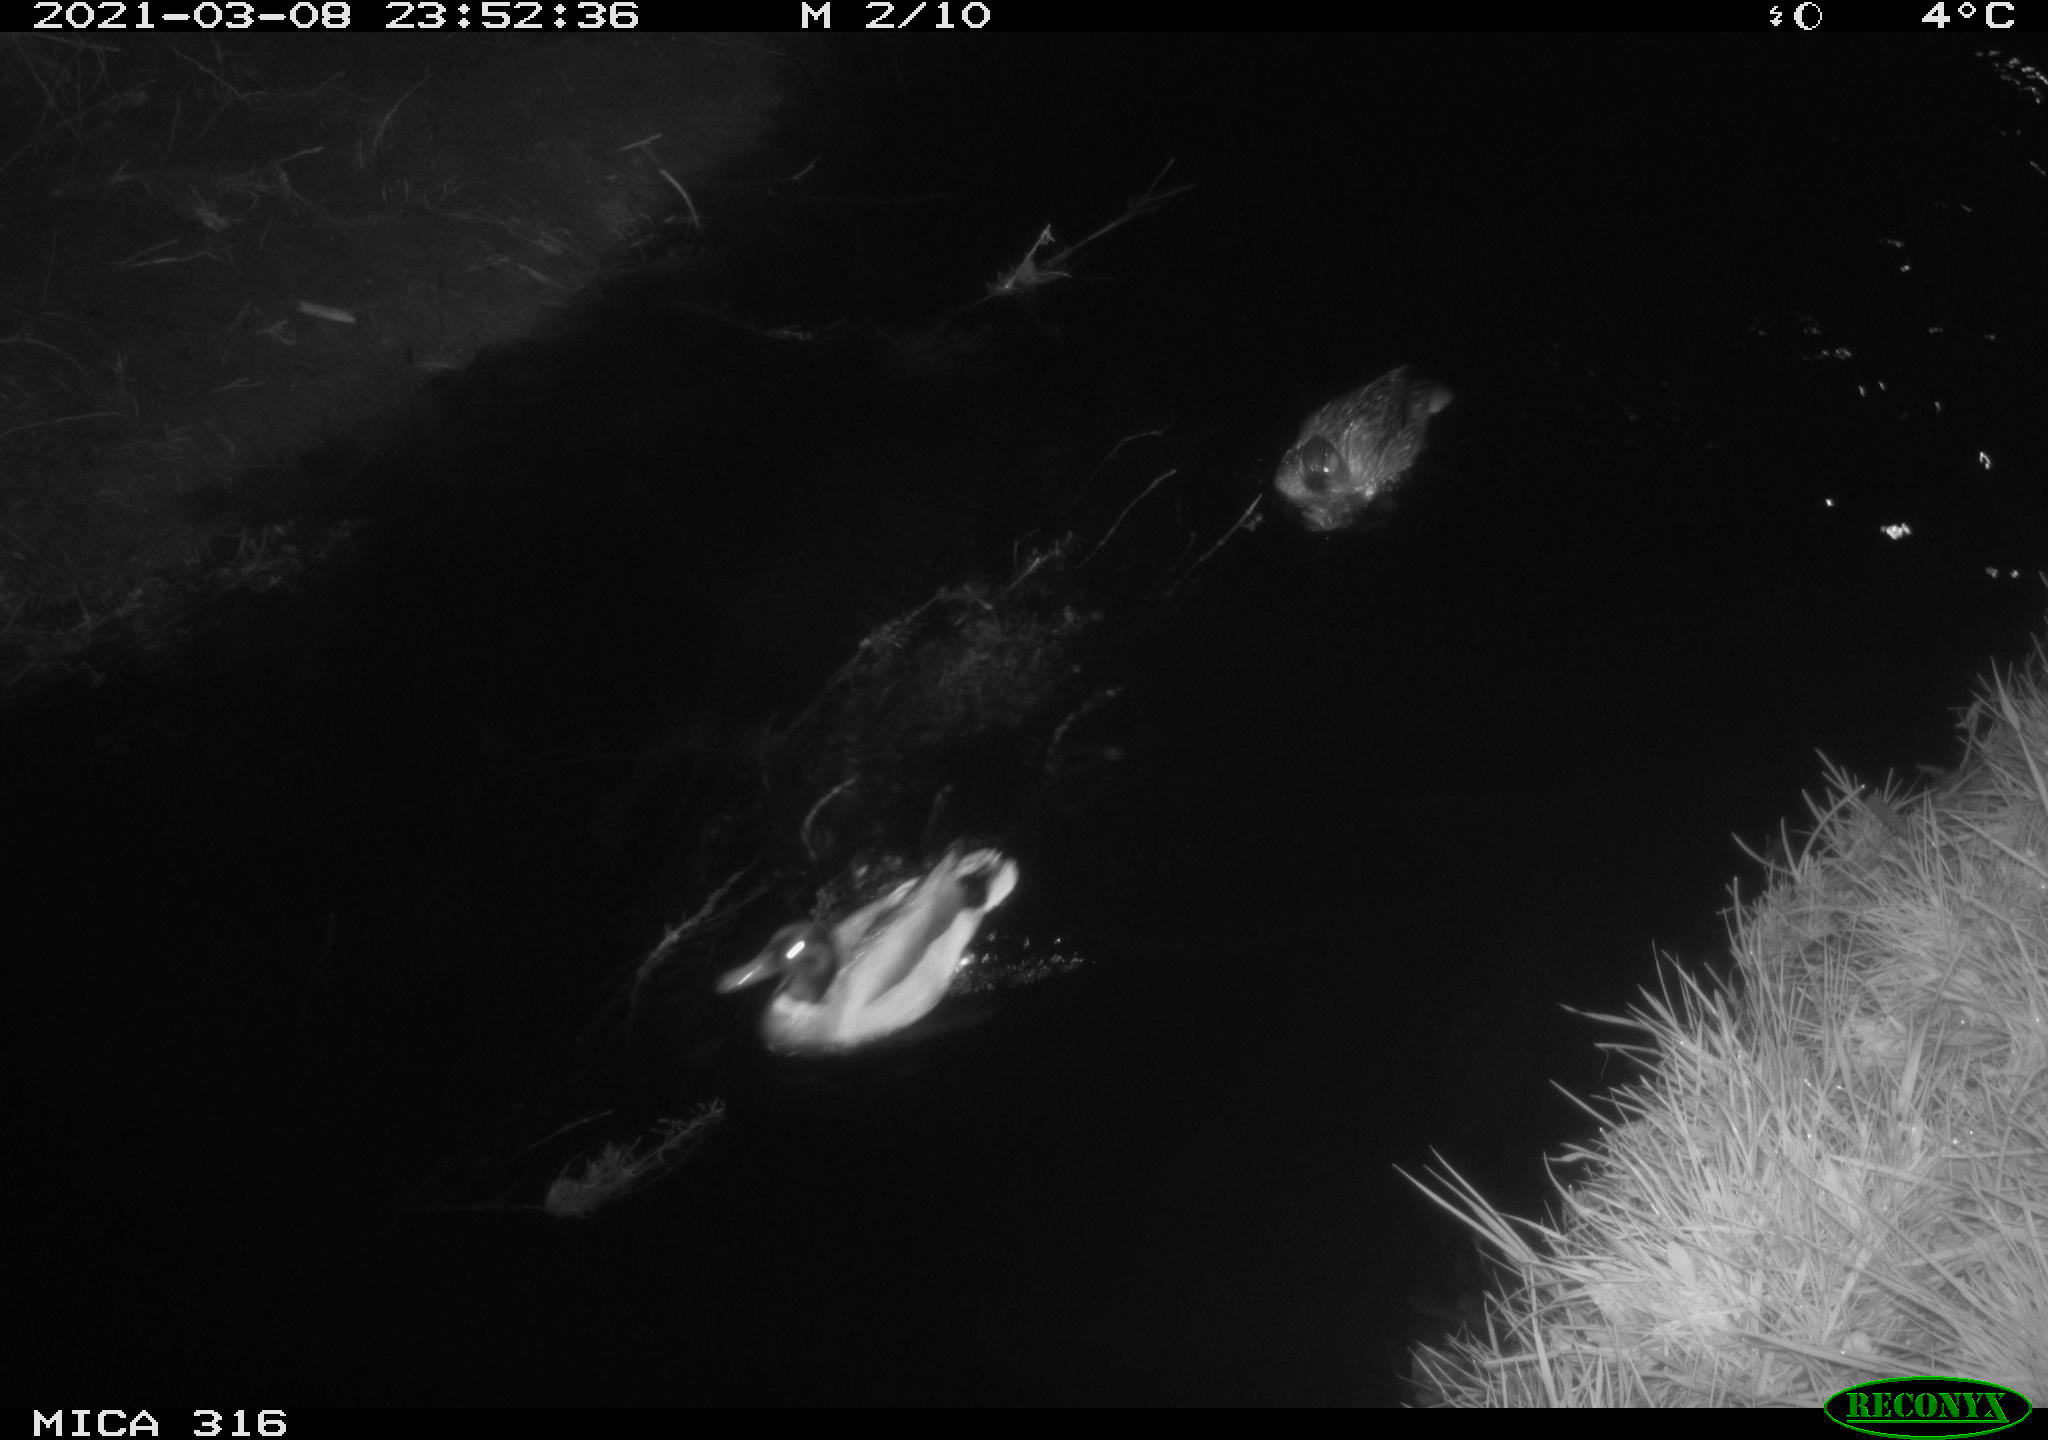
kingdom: Animalia
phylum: Chordata
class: Aves
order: Anseriformes
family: Anatidae
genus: Anas
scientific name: Anas platyrhynchos
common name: Mallard
